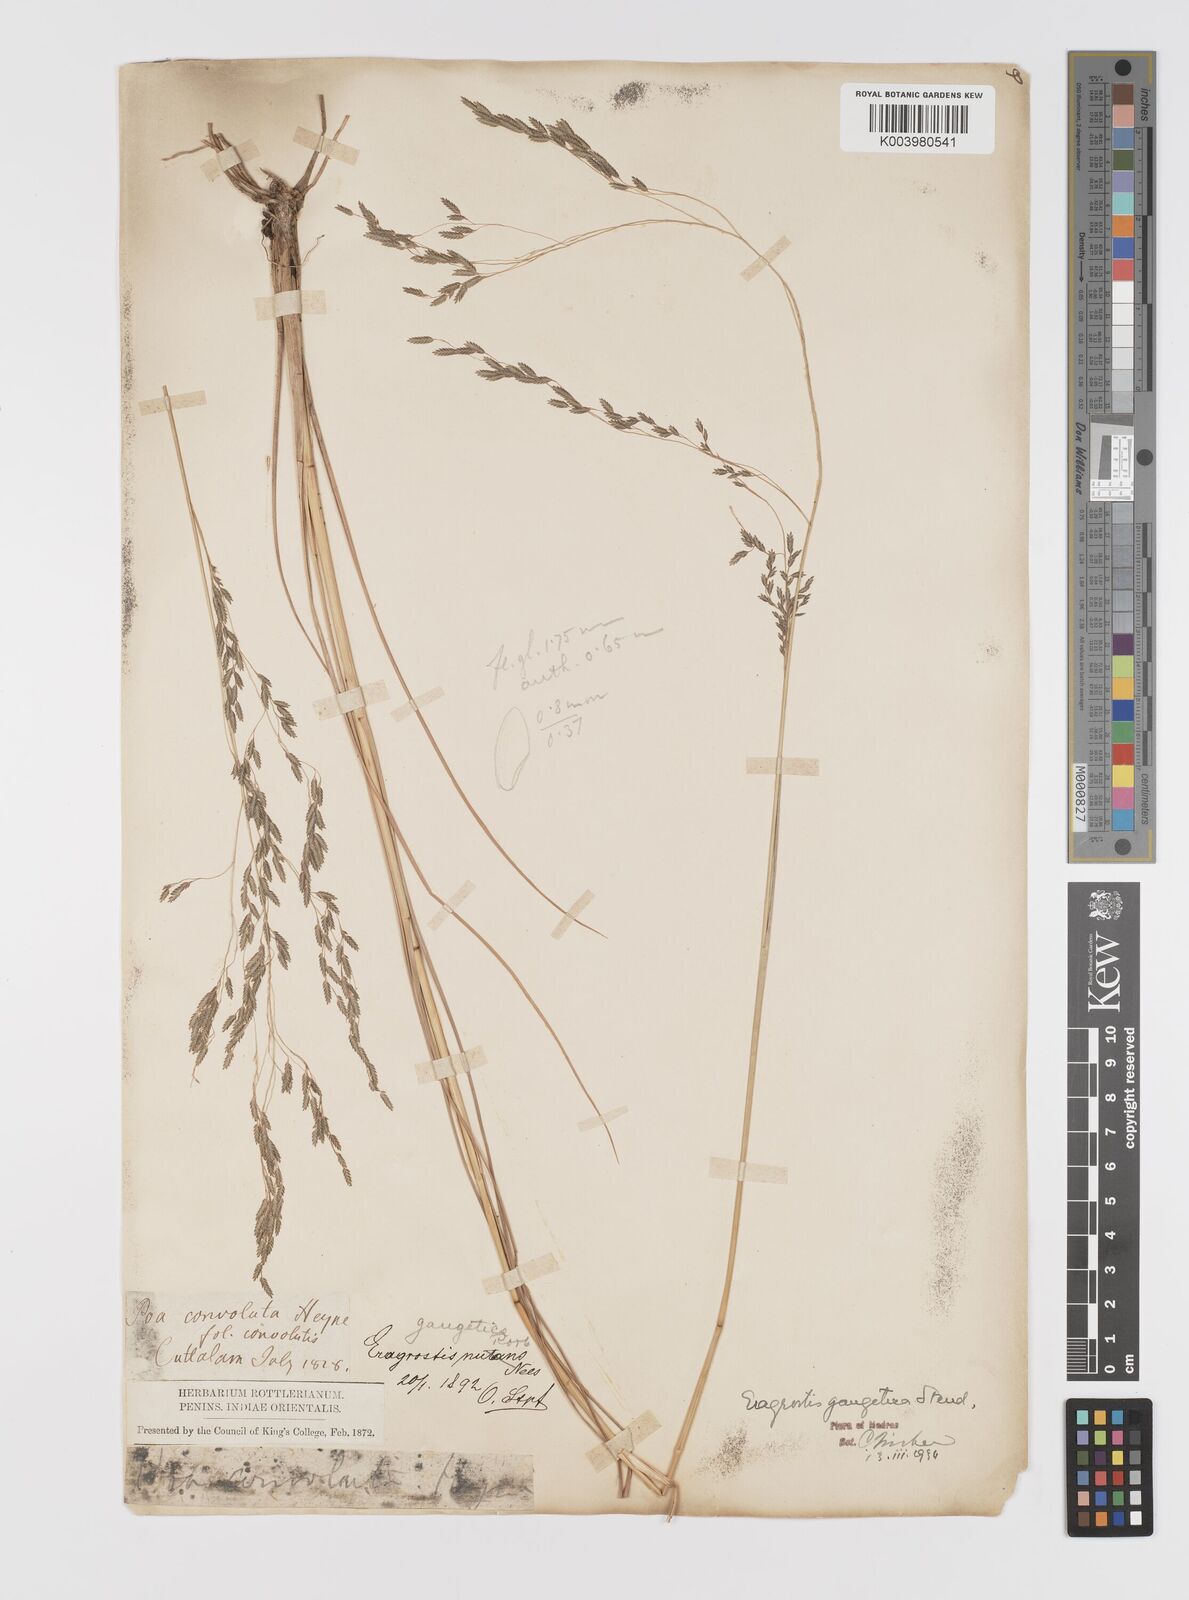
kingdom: Plantae
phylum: Tracheophyta
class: Liliopsida
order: Poales
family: Poaceae
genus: Eragrostis
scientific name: Eragrostis
